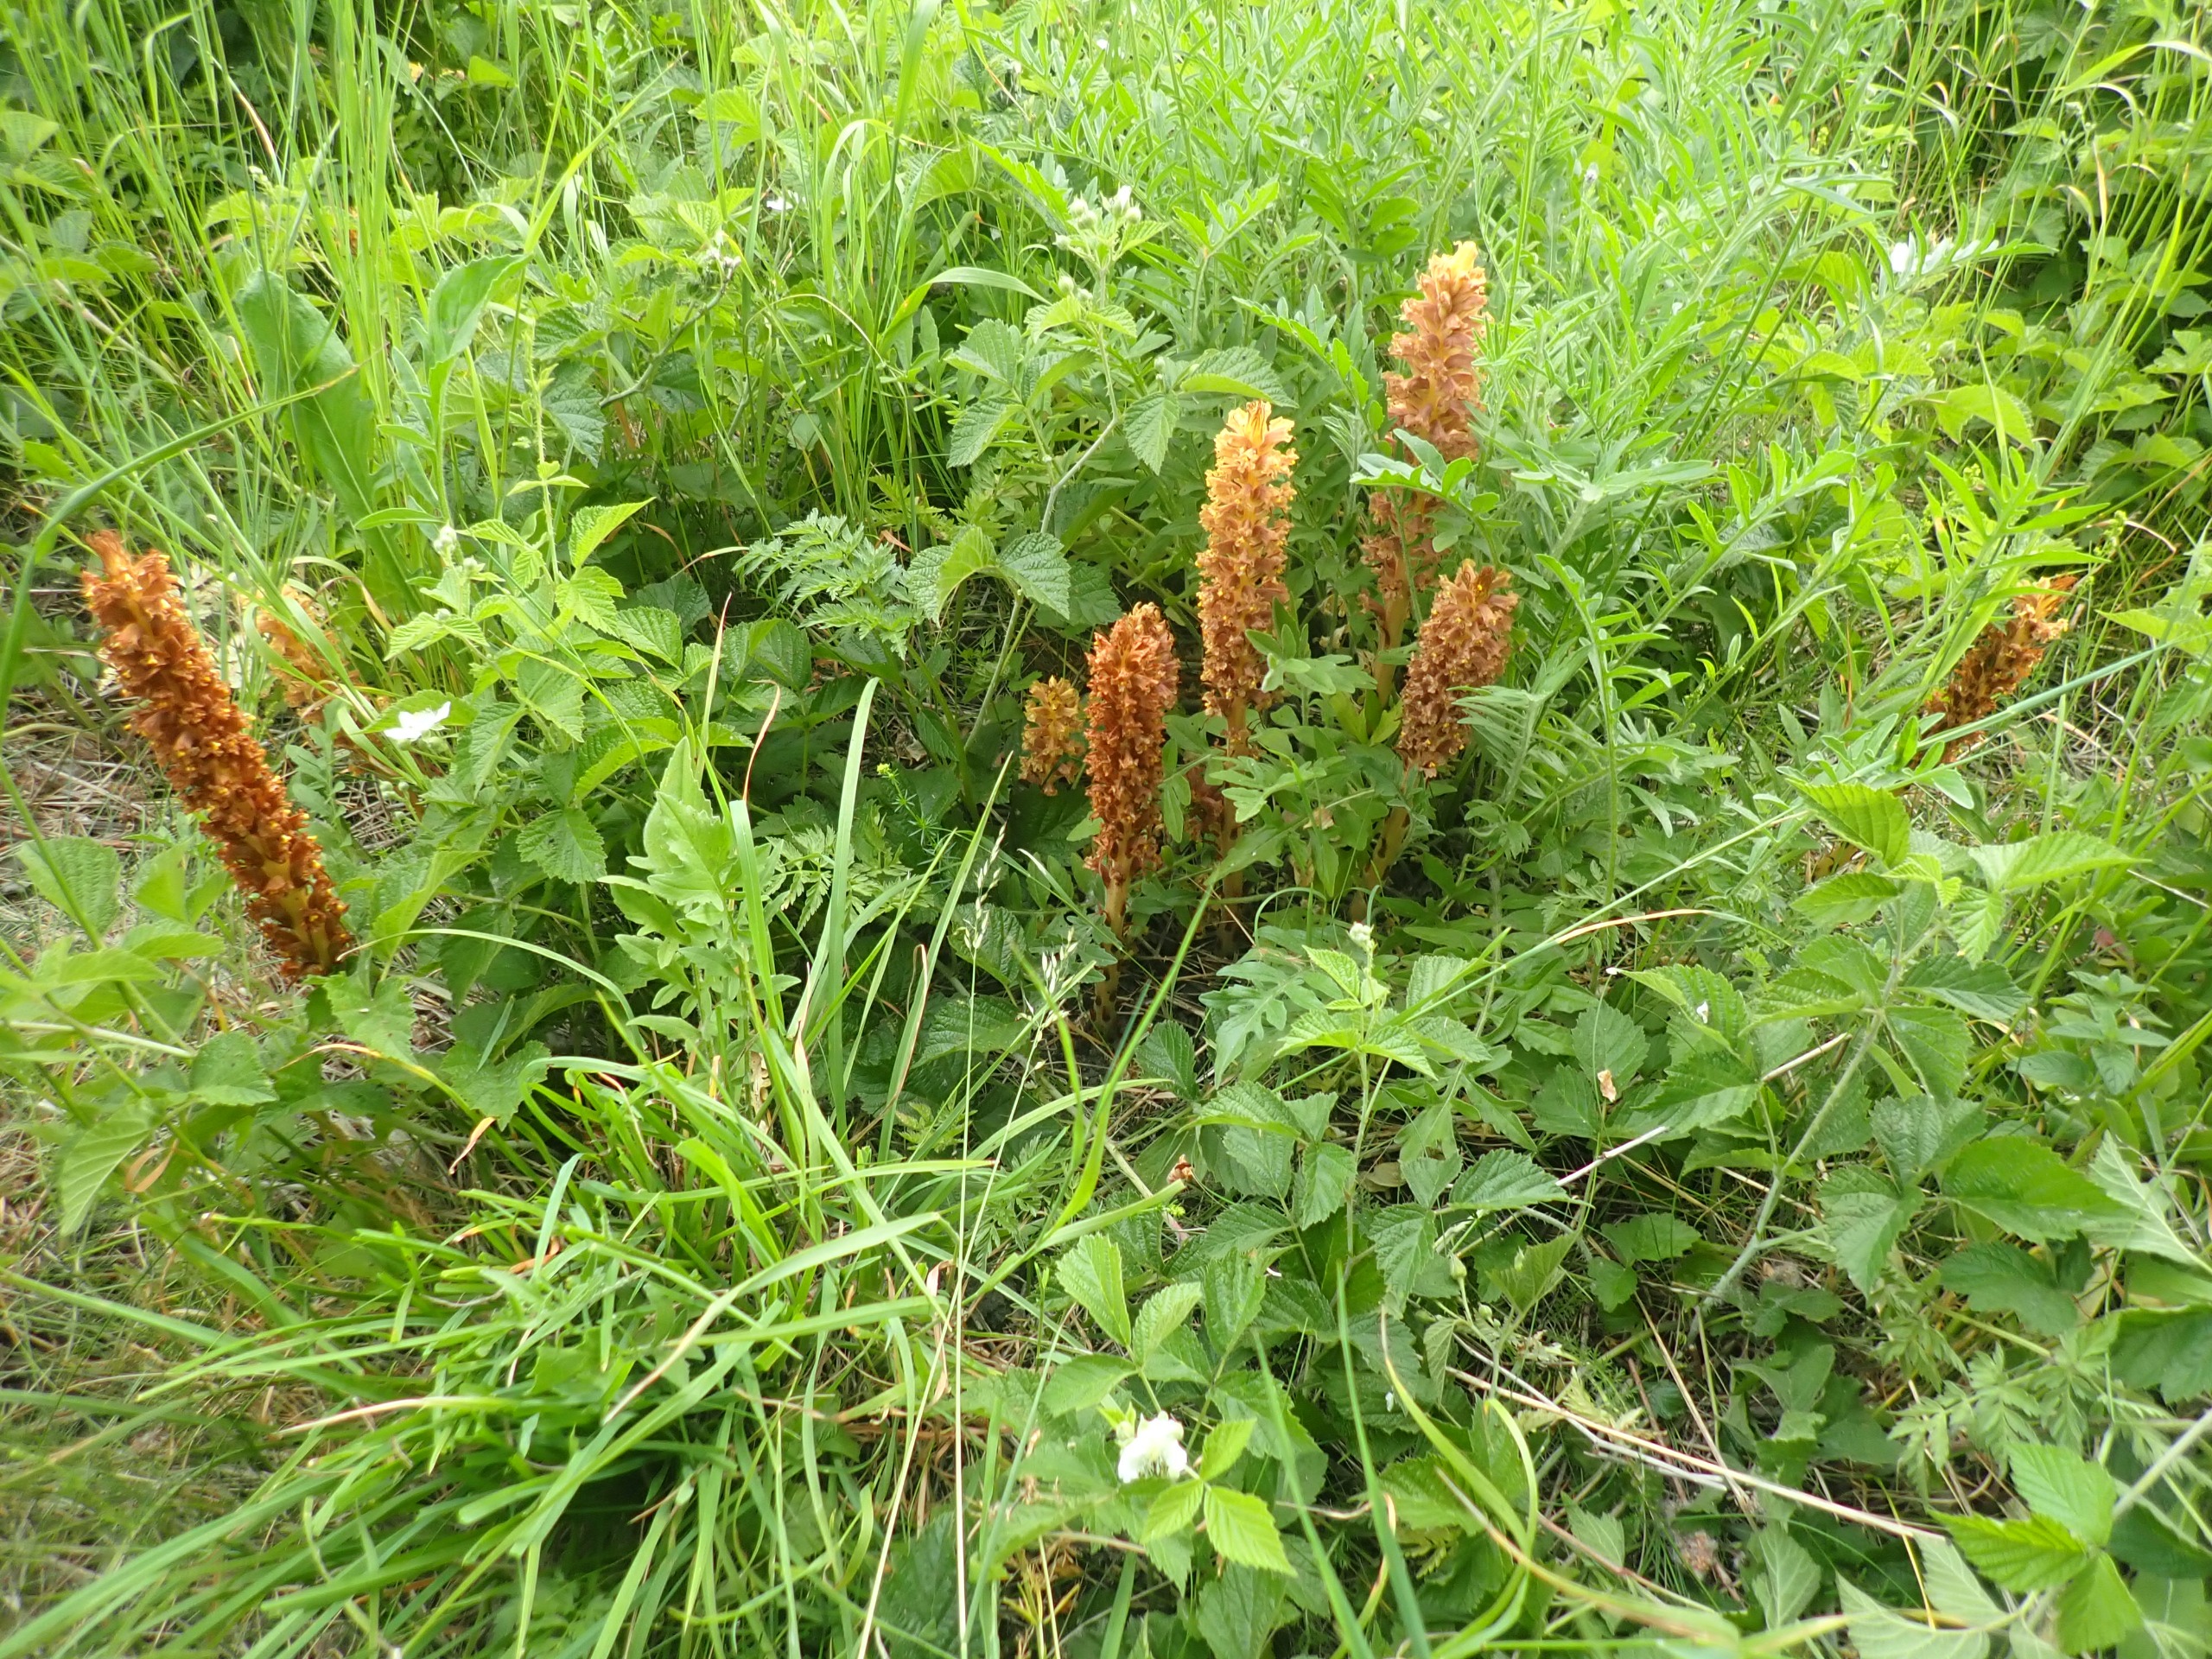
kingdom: Plantae
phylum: Tracheophyta
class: Magnoliopsida
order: Lamiales
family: Orobanchaceae
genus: Orobanche
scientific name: Orobanche elatior
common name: Stor gyvelkvæler
